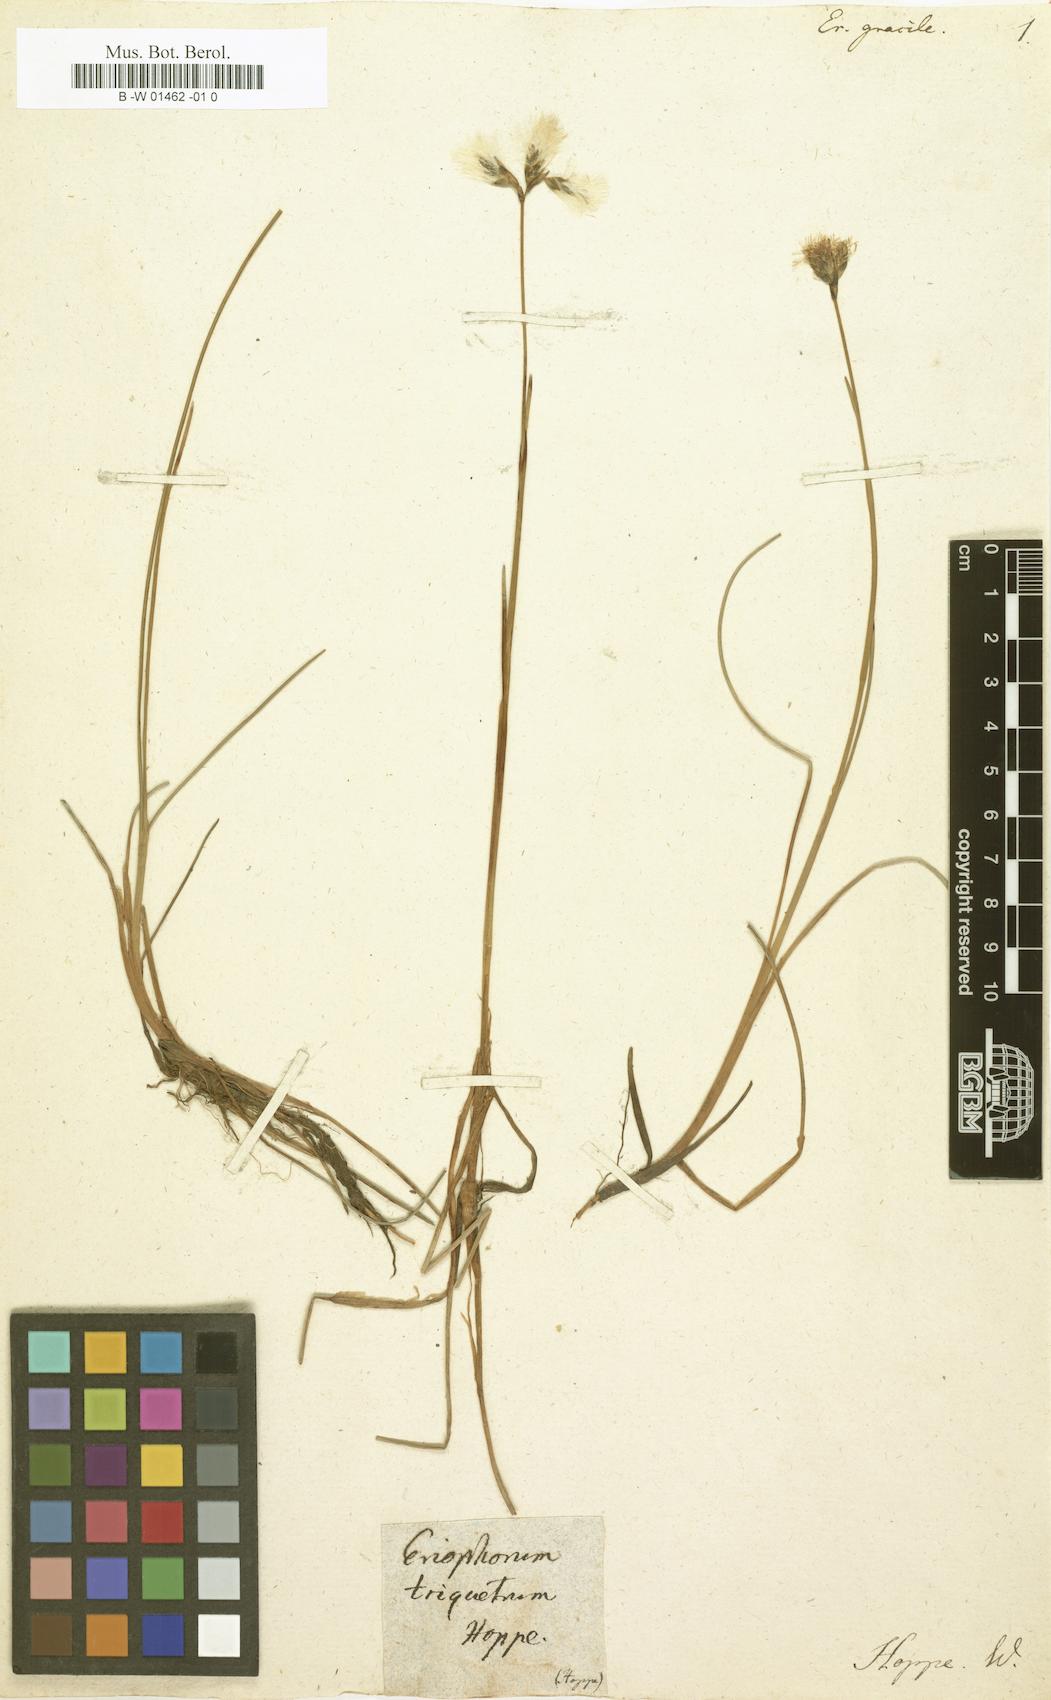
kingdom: Plantae
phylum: Tracheophyta
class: Liliopsida
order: Poales
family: Cyperaceae
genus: Eriophorum
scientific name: Eriophorum gracile
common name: Slender cottongrass
